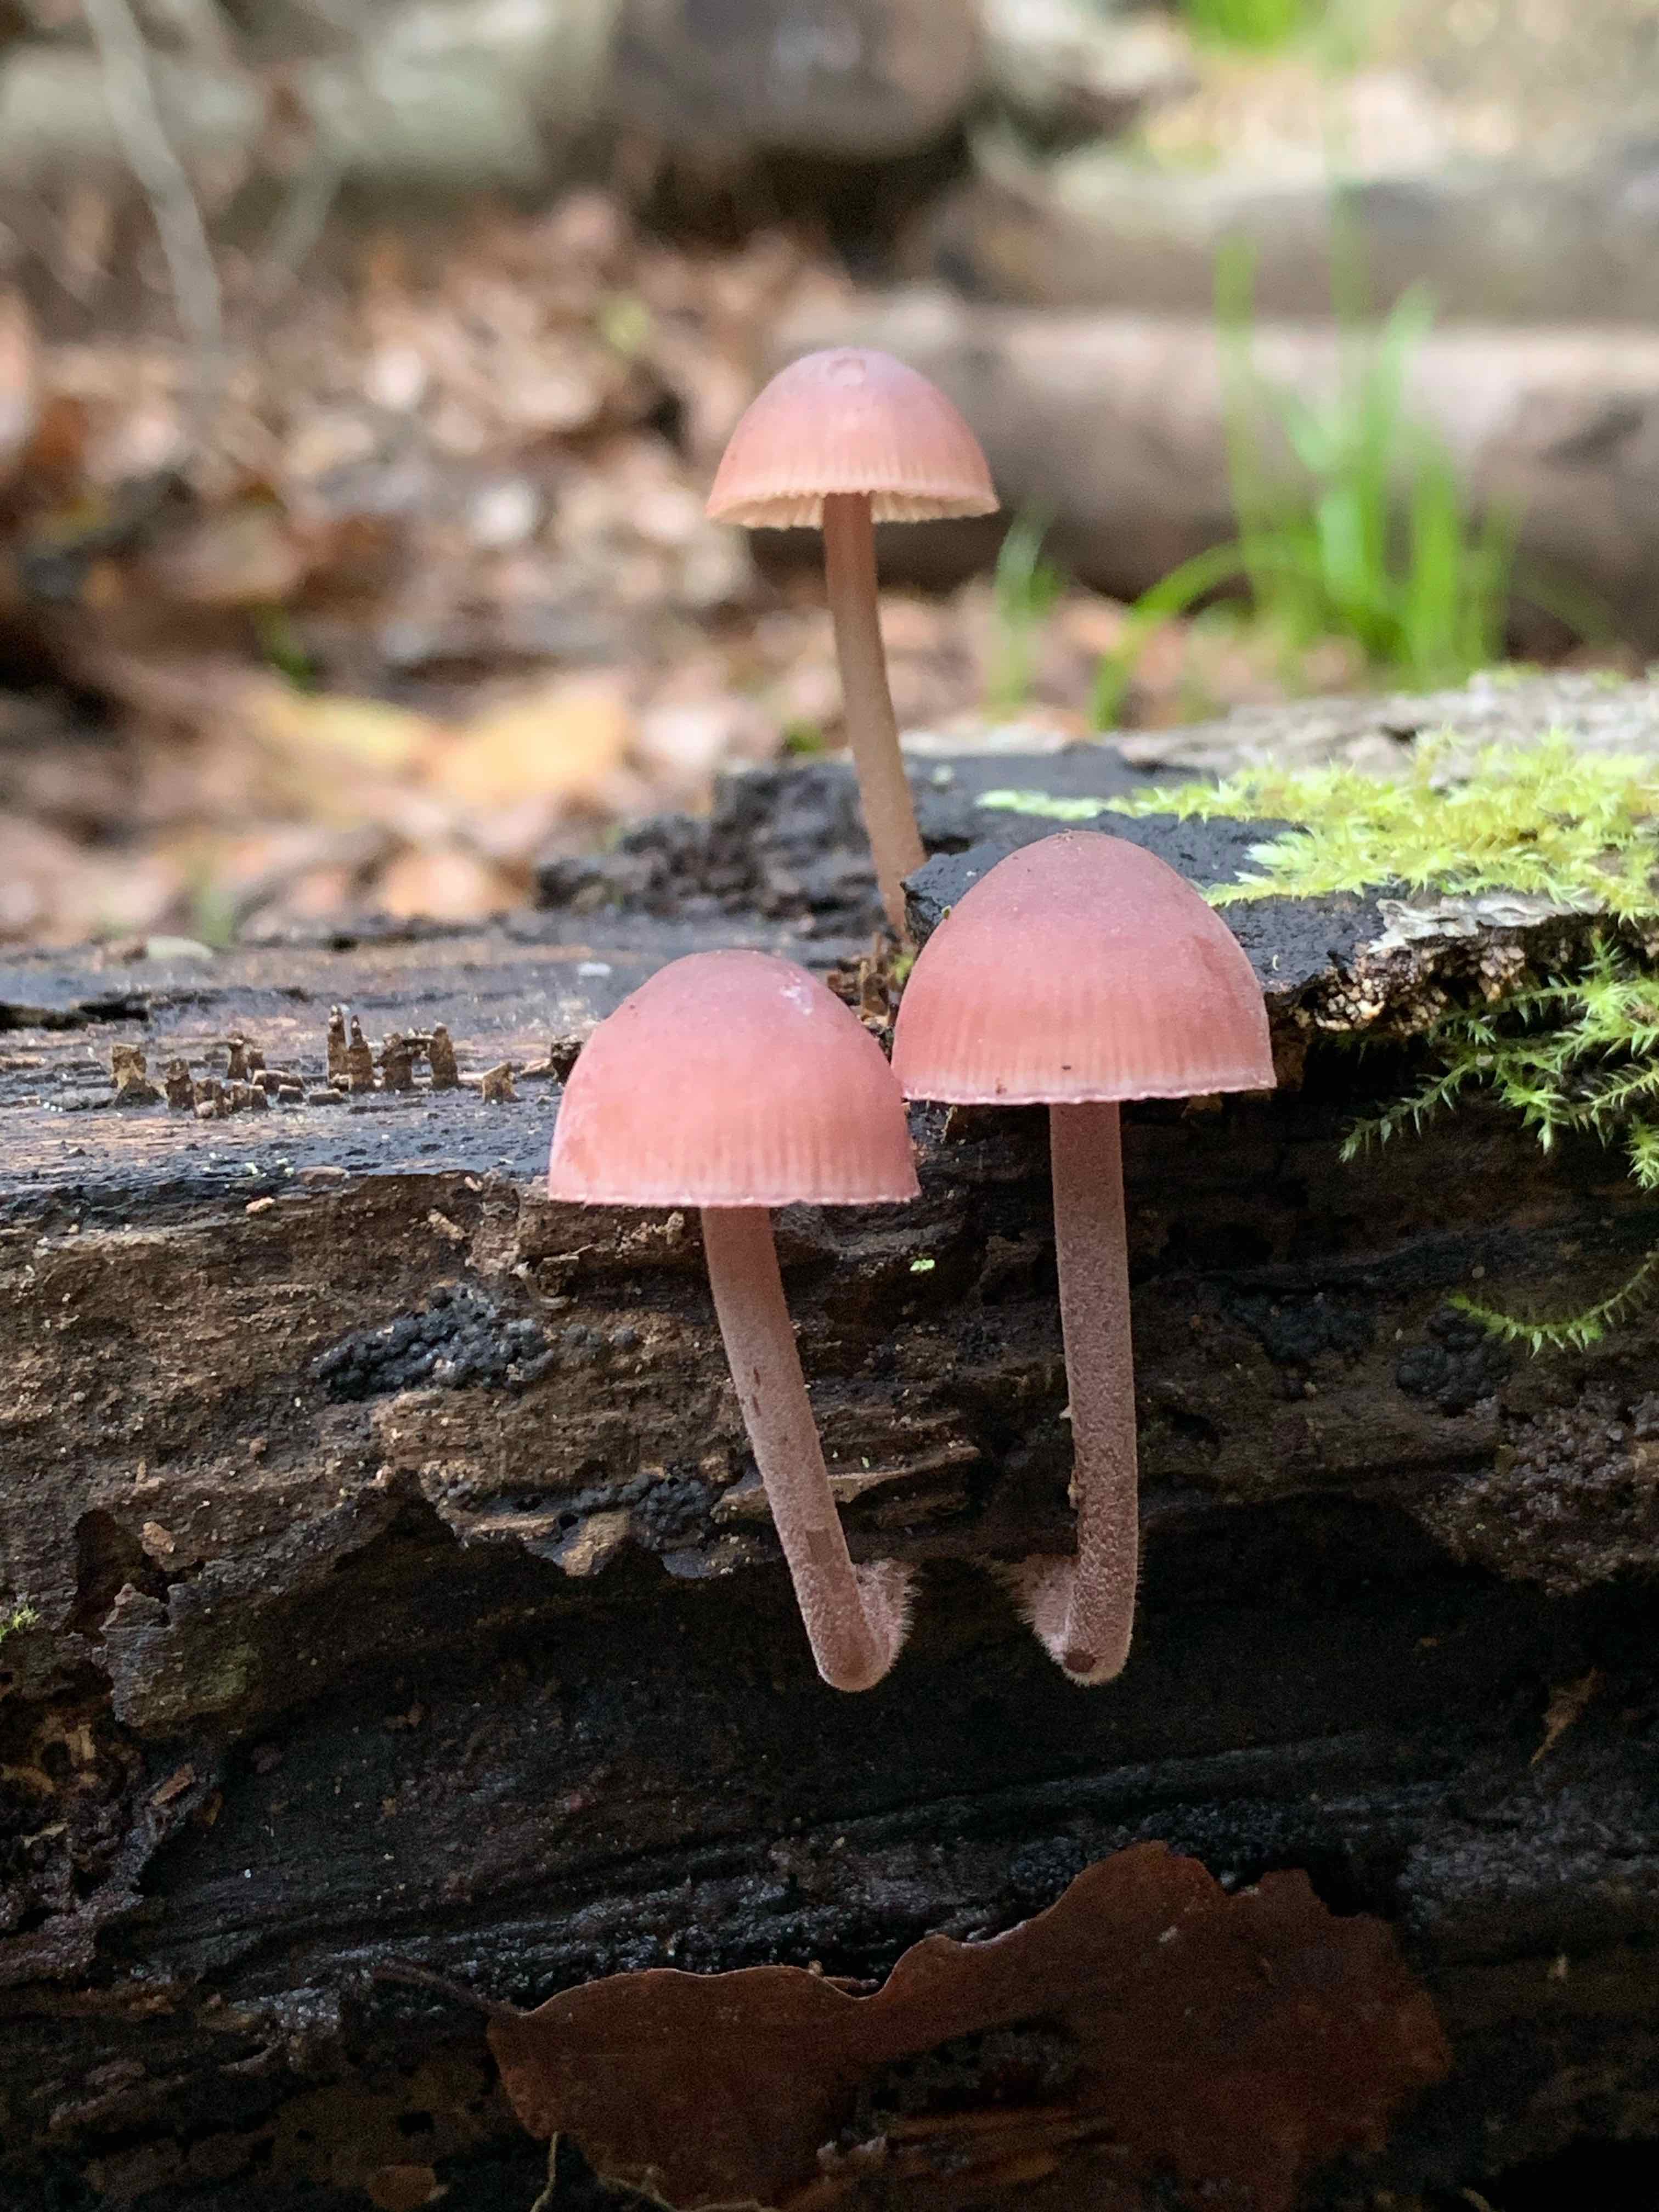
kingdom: Fungi
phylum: Basidiomycota
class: Agaricomycetes
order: Agaricales
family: Mycenaceae
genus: Mycena
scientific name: Mycena haematopus
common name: blødende huesvamp
